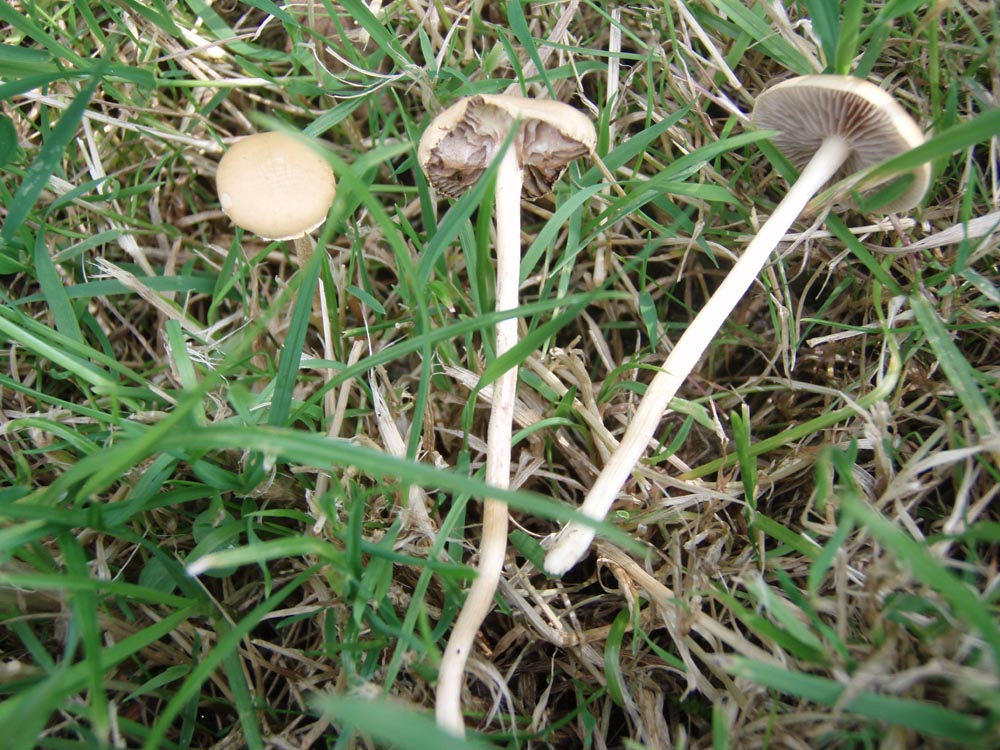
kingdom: Fungi
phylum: Basidiomycota
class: Agaricomycetes
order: Agaricales
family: Strophariaceae
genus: Agrocybe
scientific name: Agrocybe pediades
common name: almindelig agerhat
